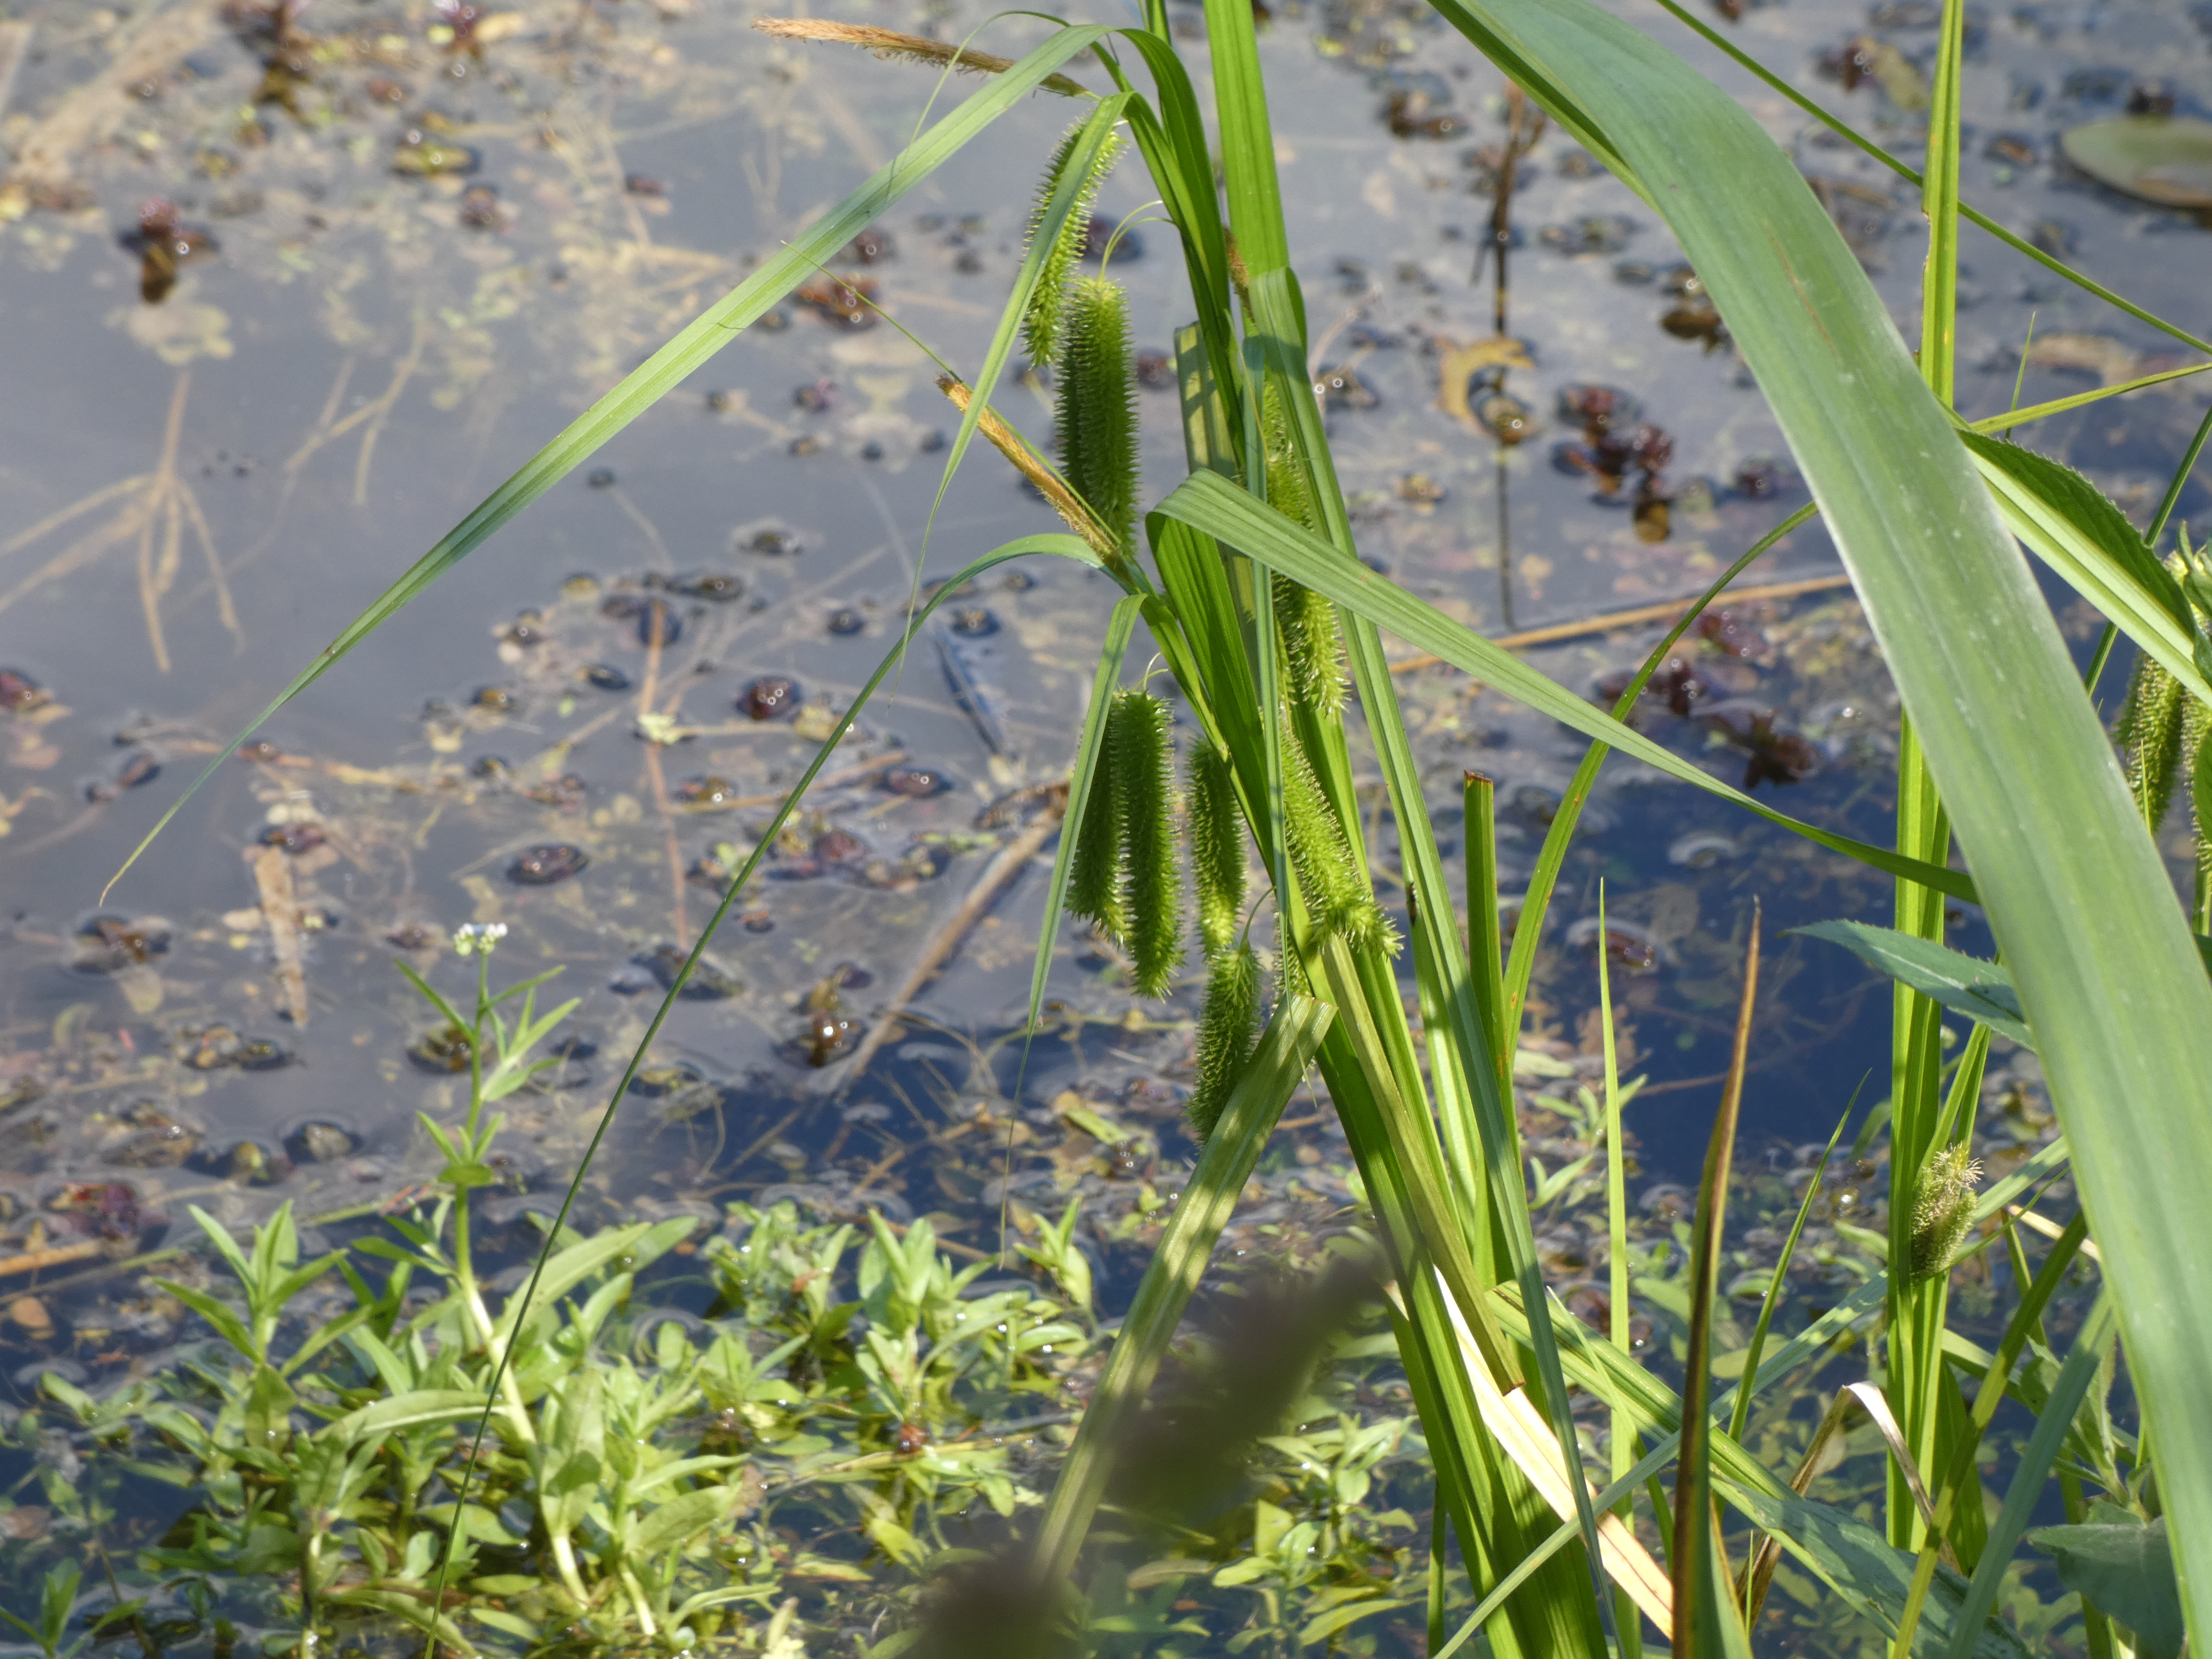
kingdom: Plantae
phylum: Tracheophyta
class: Liliopsida
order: Poales
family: Cyperaceae
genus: Carex
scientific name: Carex pseudocyperus
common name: Knippe-star
